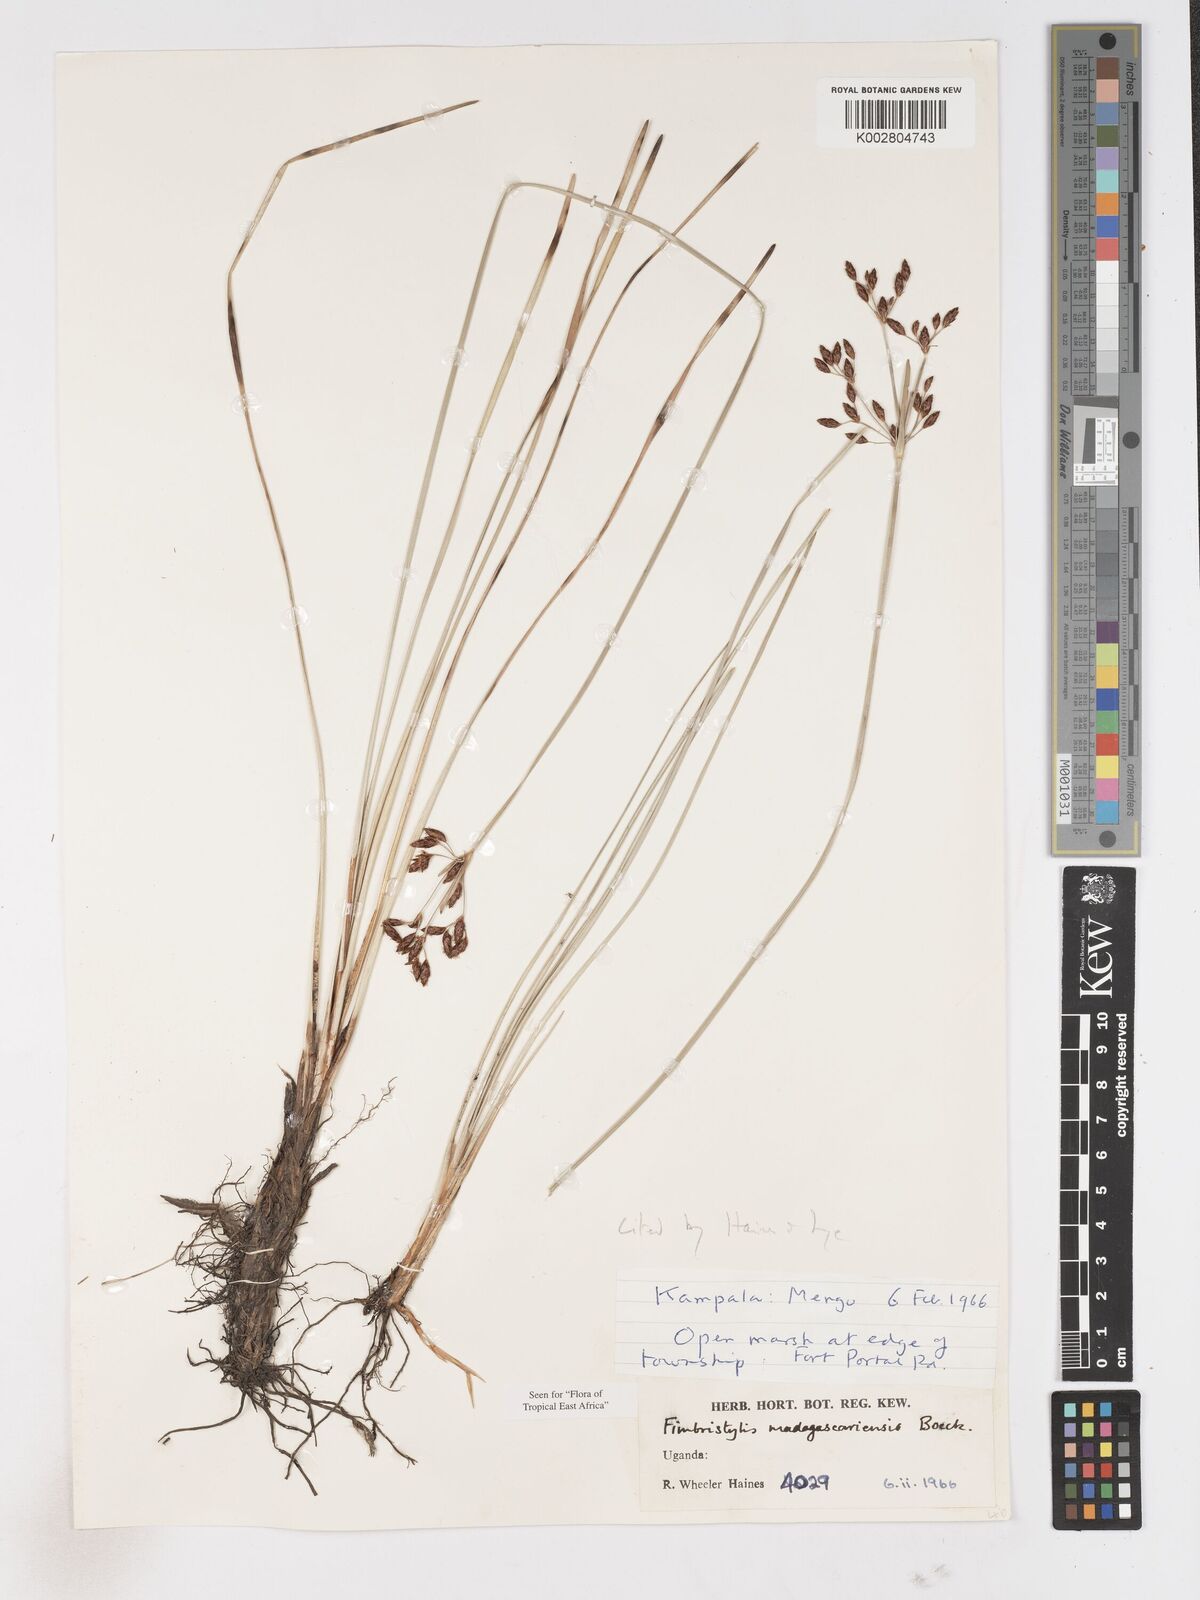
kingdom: Plantae
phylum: Tracheophyta
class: Liliopsida
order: Poales
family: Cyperaceae
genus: Fimbristylis
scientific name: Fimbristylis madagascariensis
